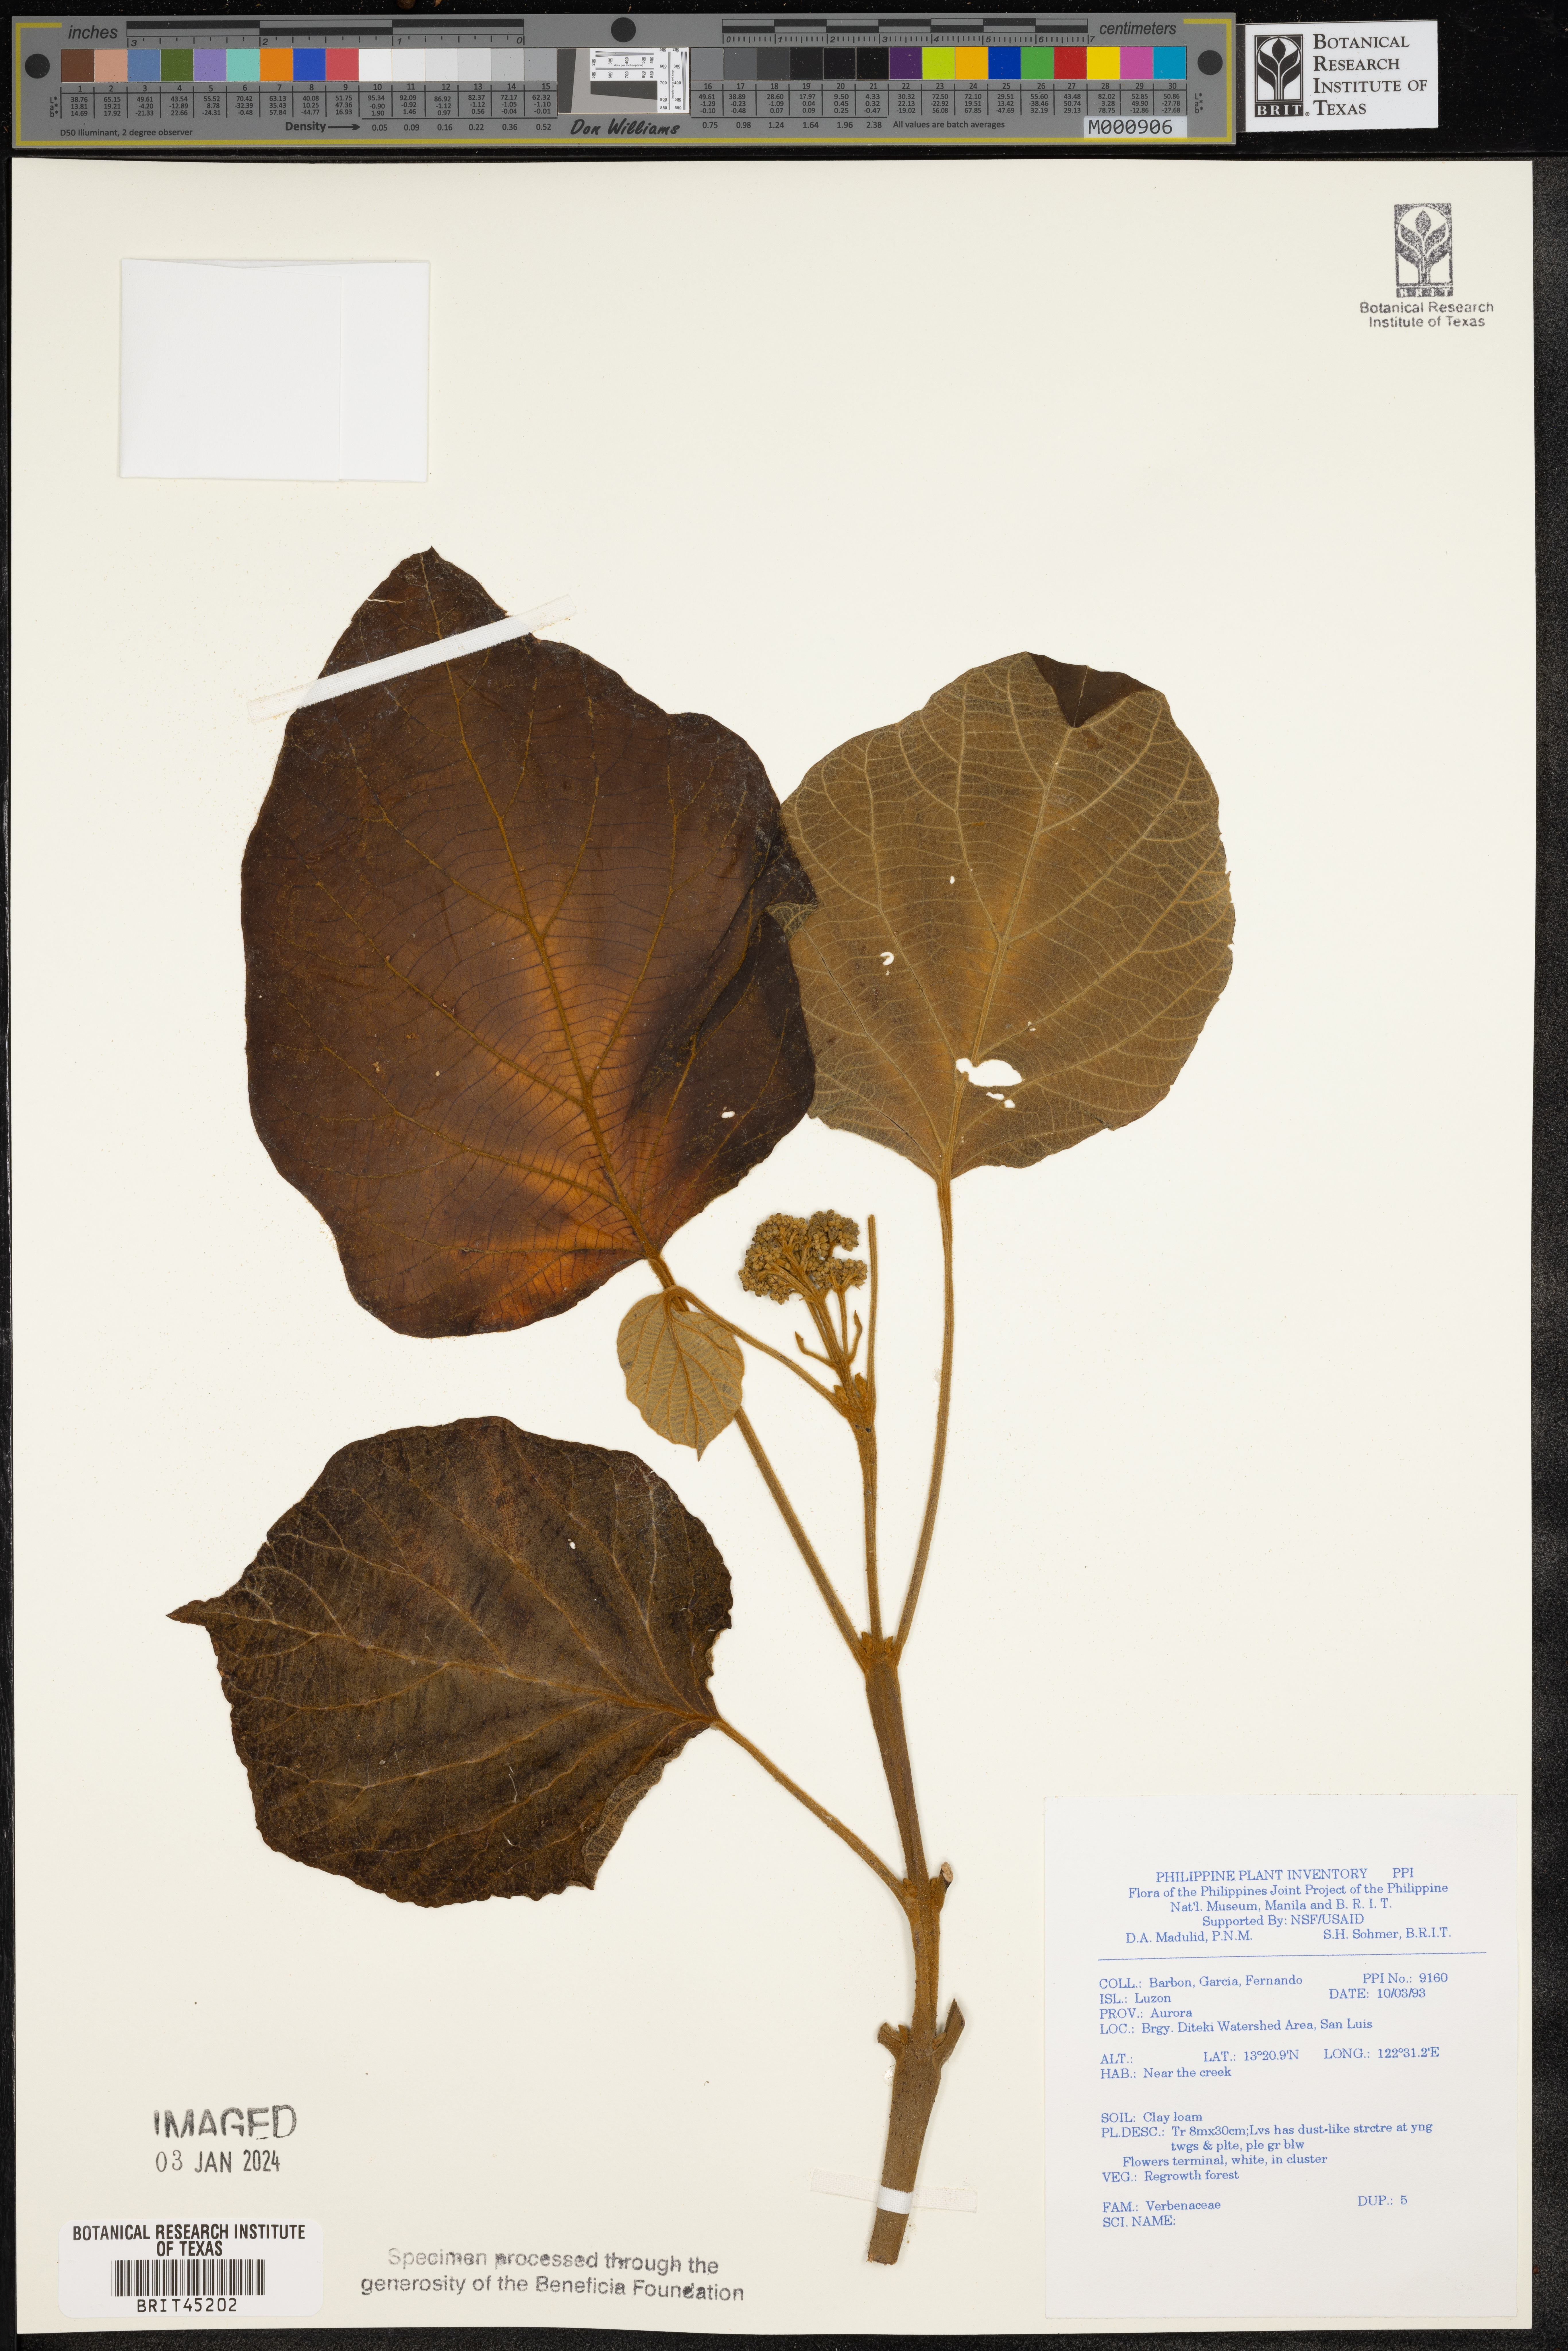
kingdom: Plantae
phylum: Tracheophyta
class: Magnoliopsida
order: Lamiales
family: Verbenaceae
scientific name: Verbenaceae
